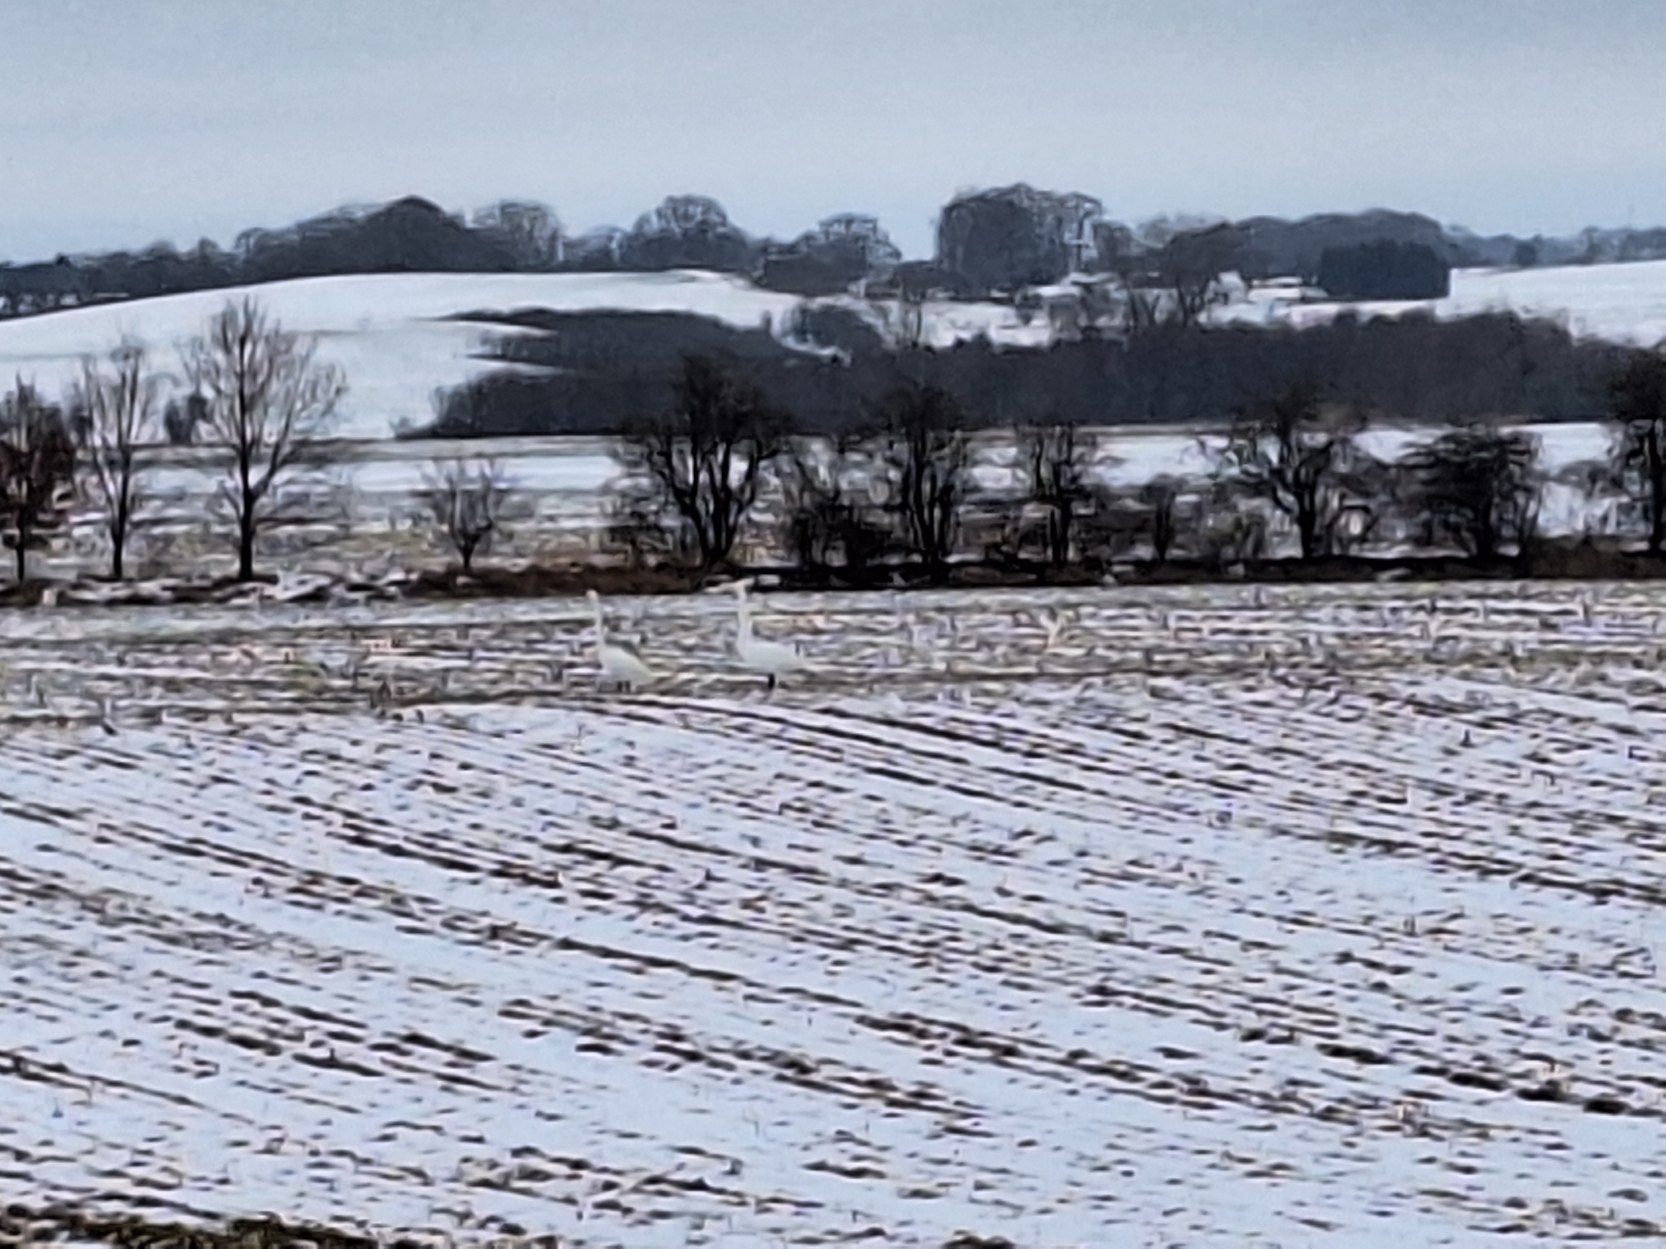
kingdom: Animalia
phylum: Chordata
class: Aves
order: Anseriformes
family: Anatidae
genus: Cygnus
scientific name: Cygnus cygnus
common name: Sangsvane
